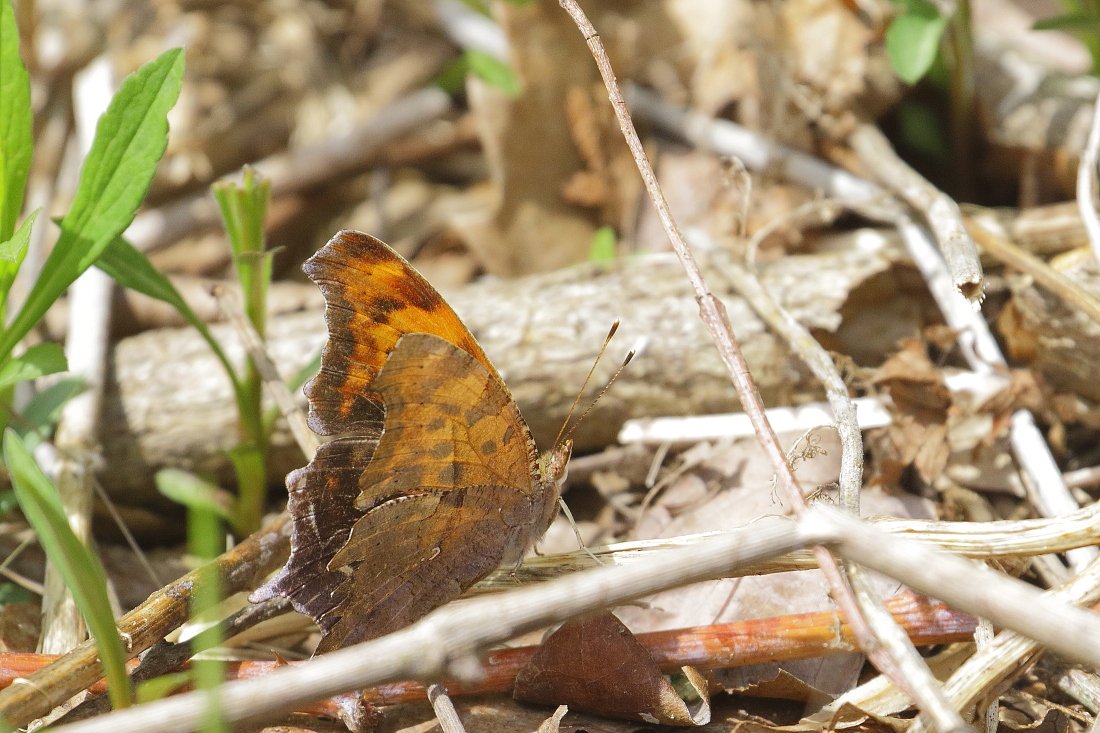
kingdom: Animalia
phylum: Arthropoda
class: Insecta
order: Lepidoptera
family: Nymphalidae
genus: Polygonia
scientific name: Polygonia interrogationis
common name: Question Mark
